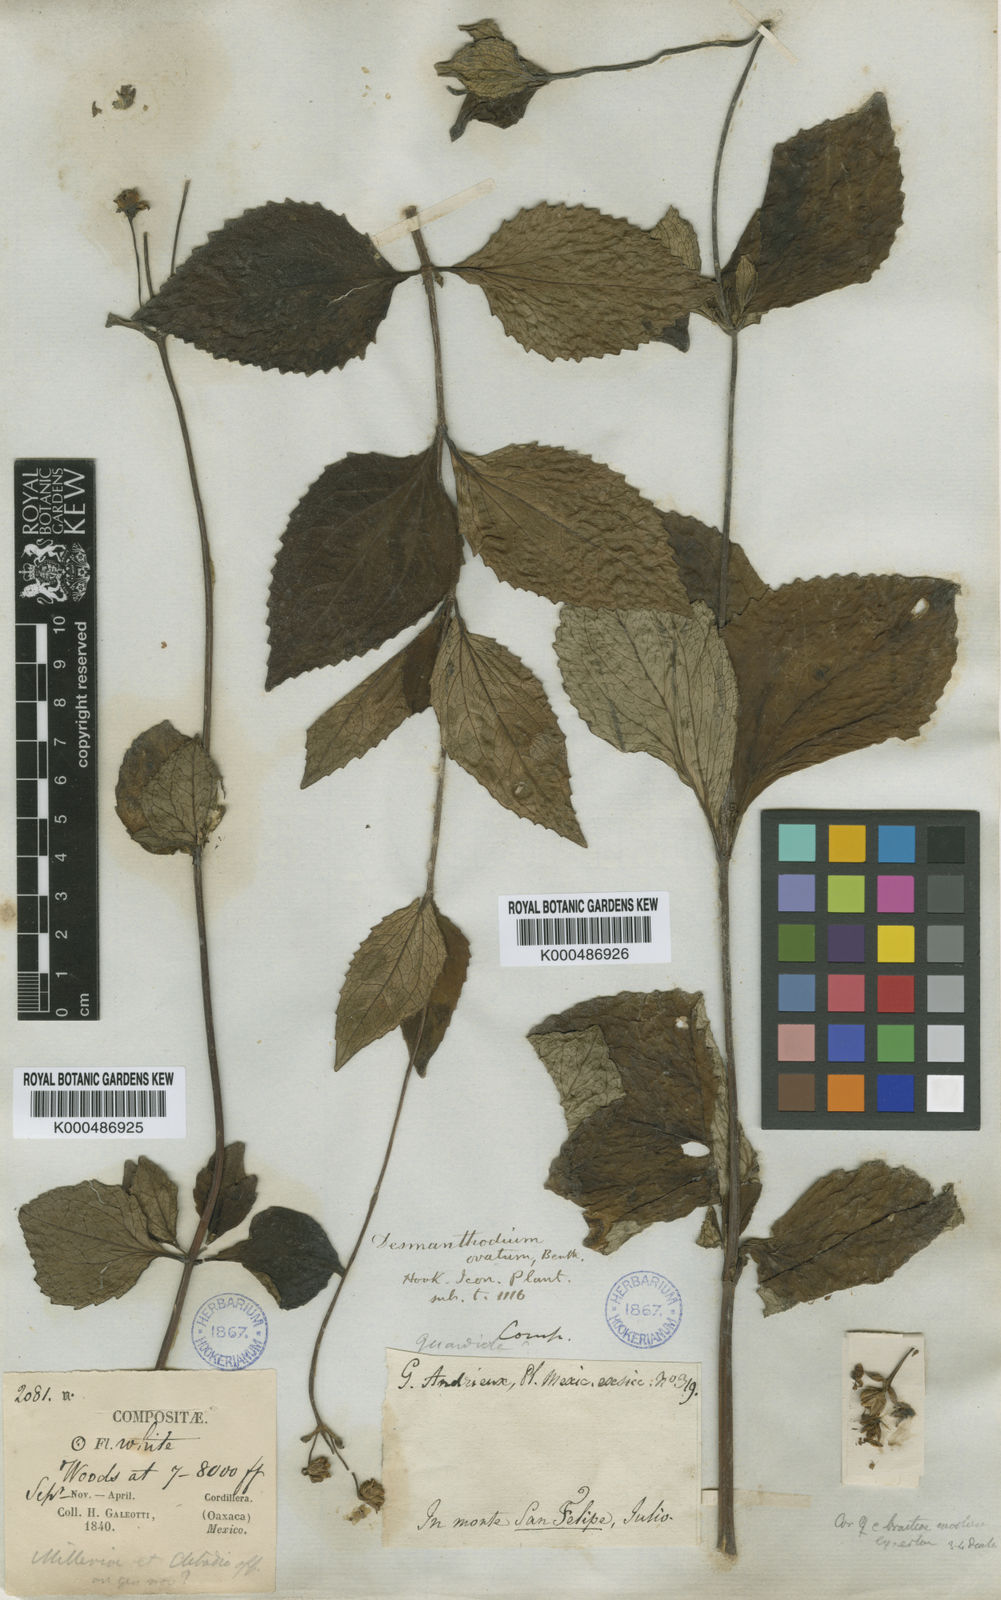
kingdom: Plantae
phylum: Tracheophyta
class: Magnoliopsida
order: Asterales
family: Asteraceae
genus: Desmanthodium
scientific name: Desmanthodium ovatum
